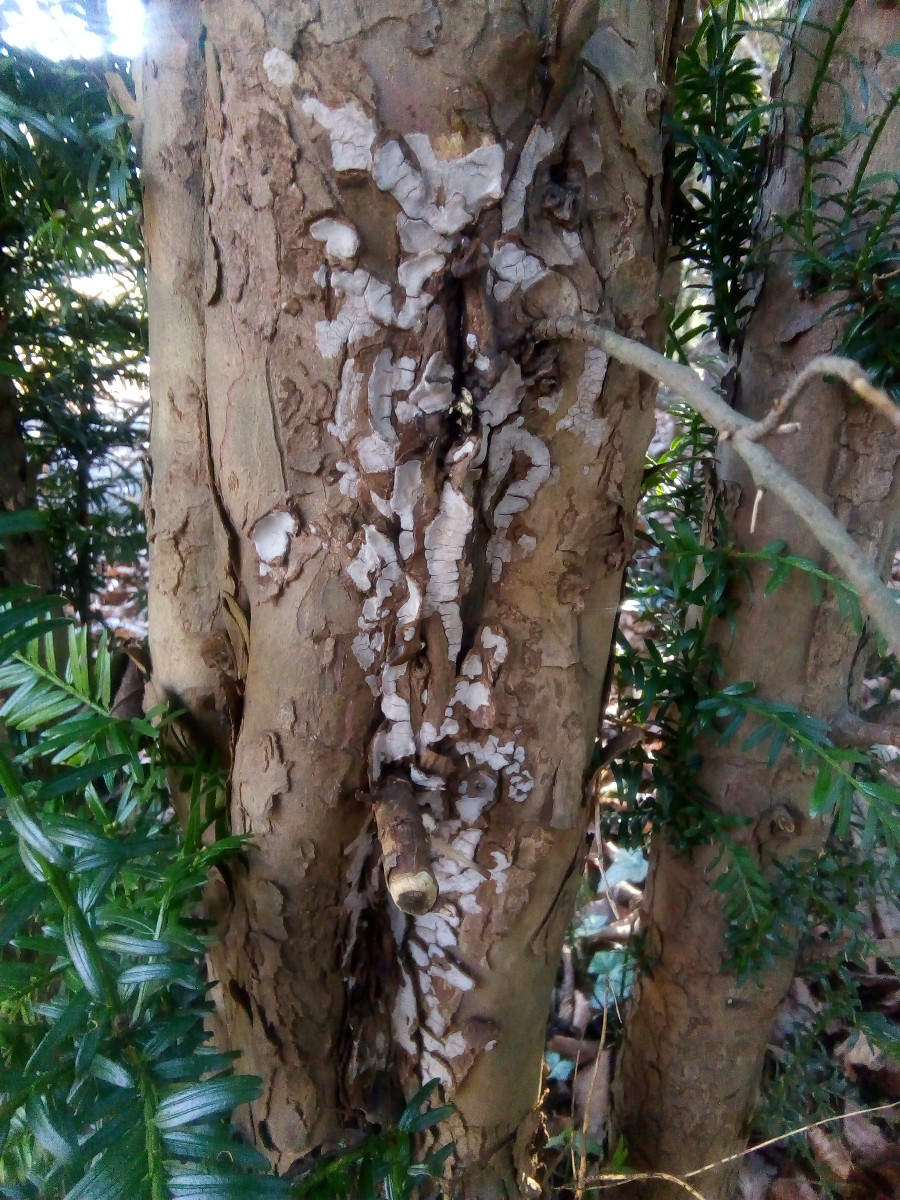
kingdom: Fungi
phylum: Basidiomycota
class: Agaricomycetes
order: Russulales
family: Echinodontiaceae
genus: Amylostereum
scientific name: Amylostereum laevigatum
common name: ene-lædersvamp
